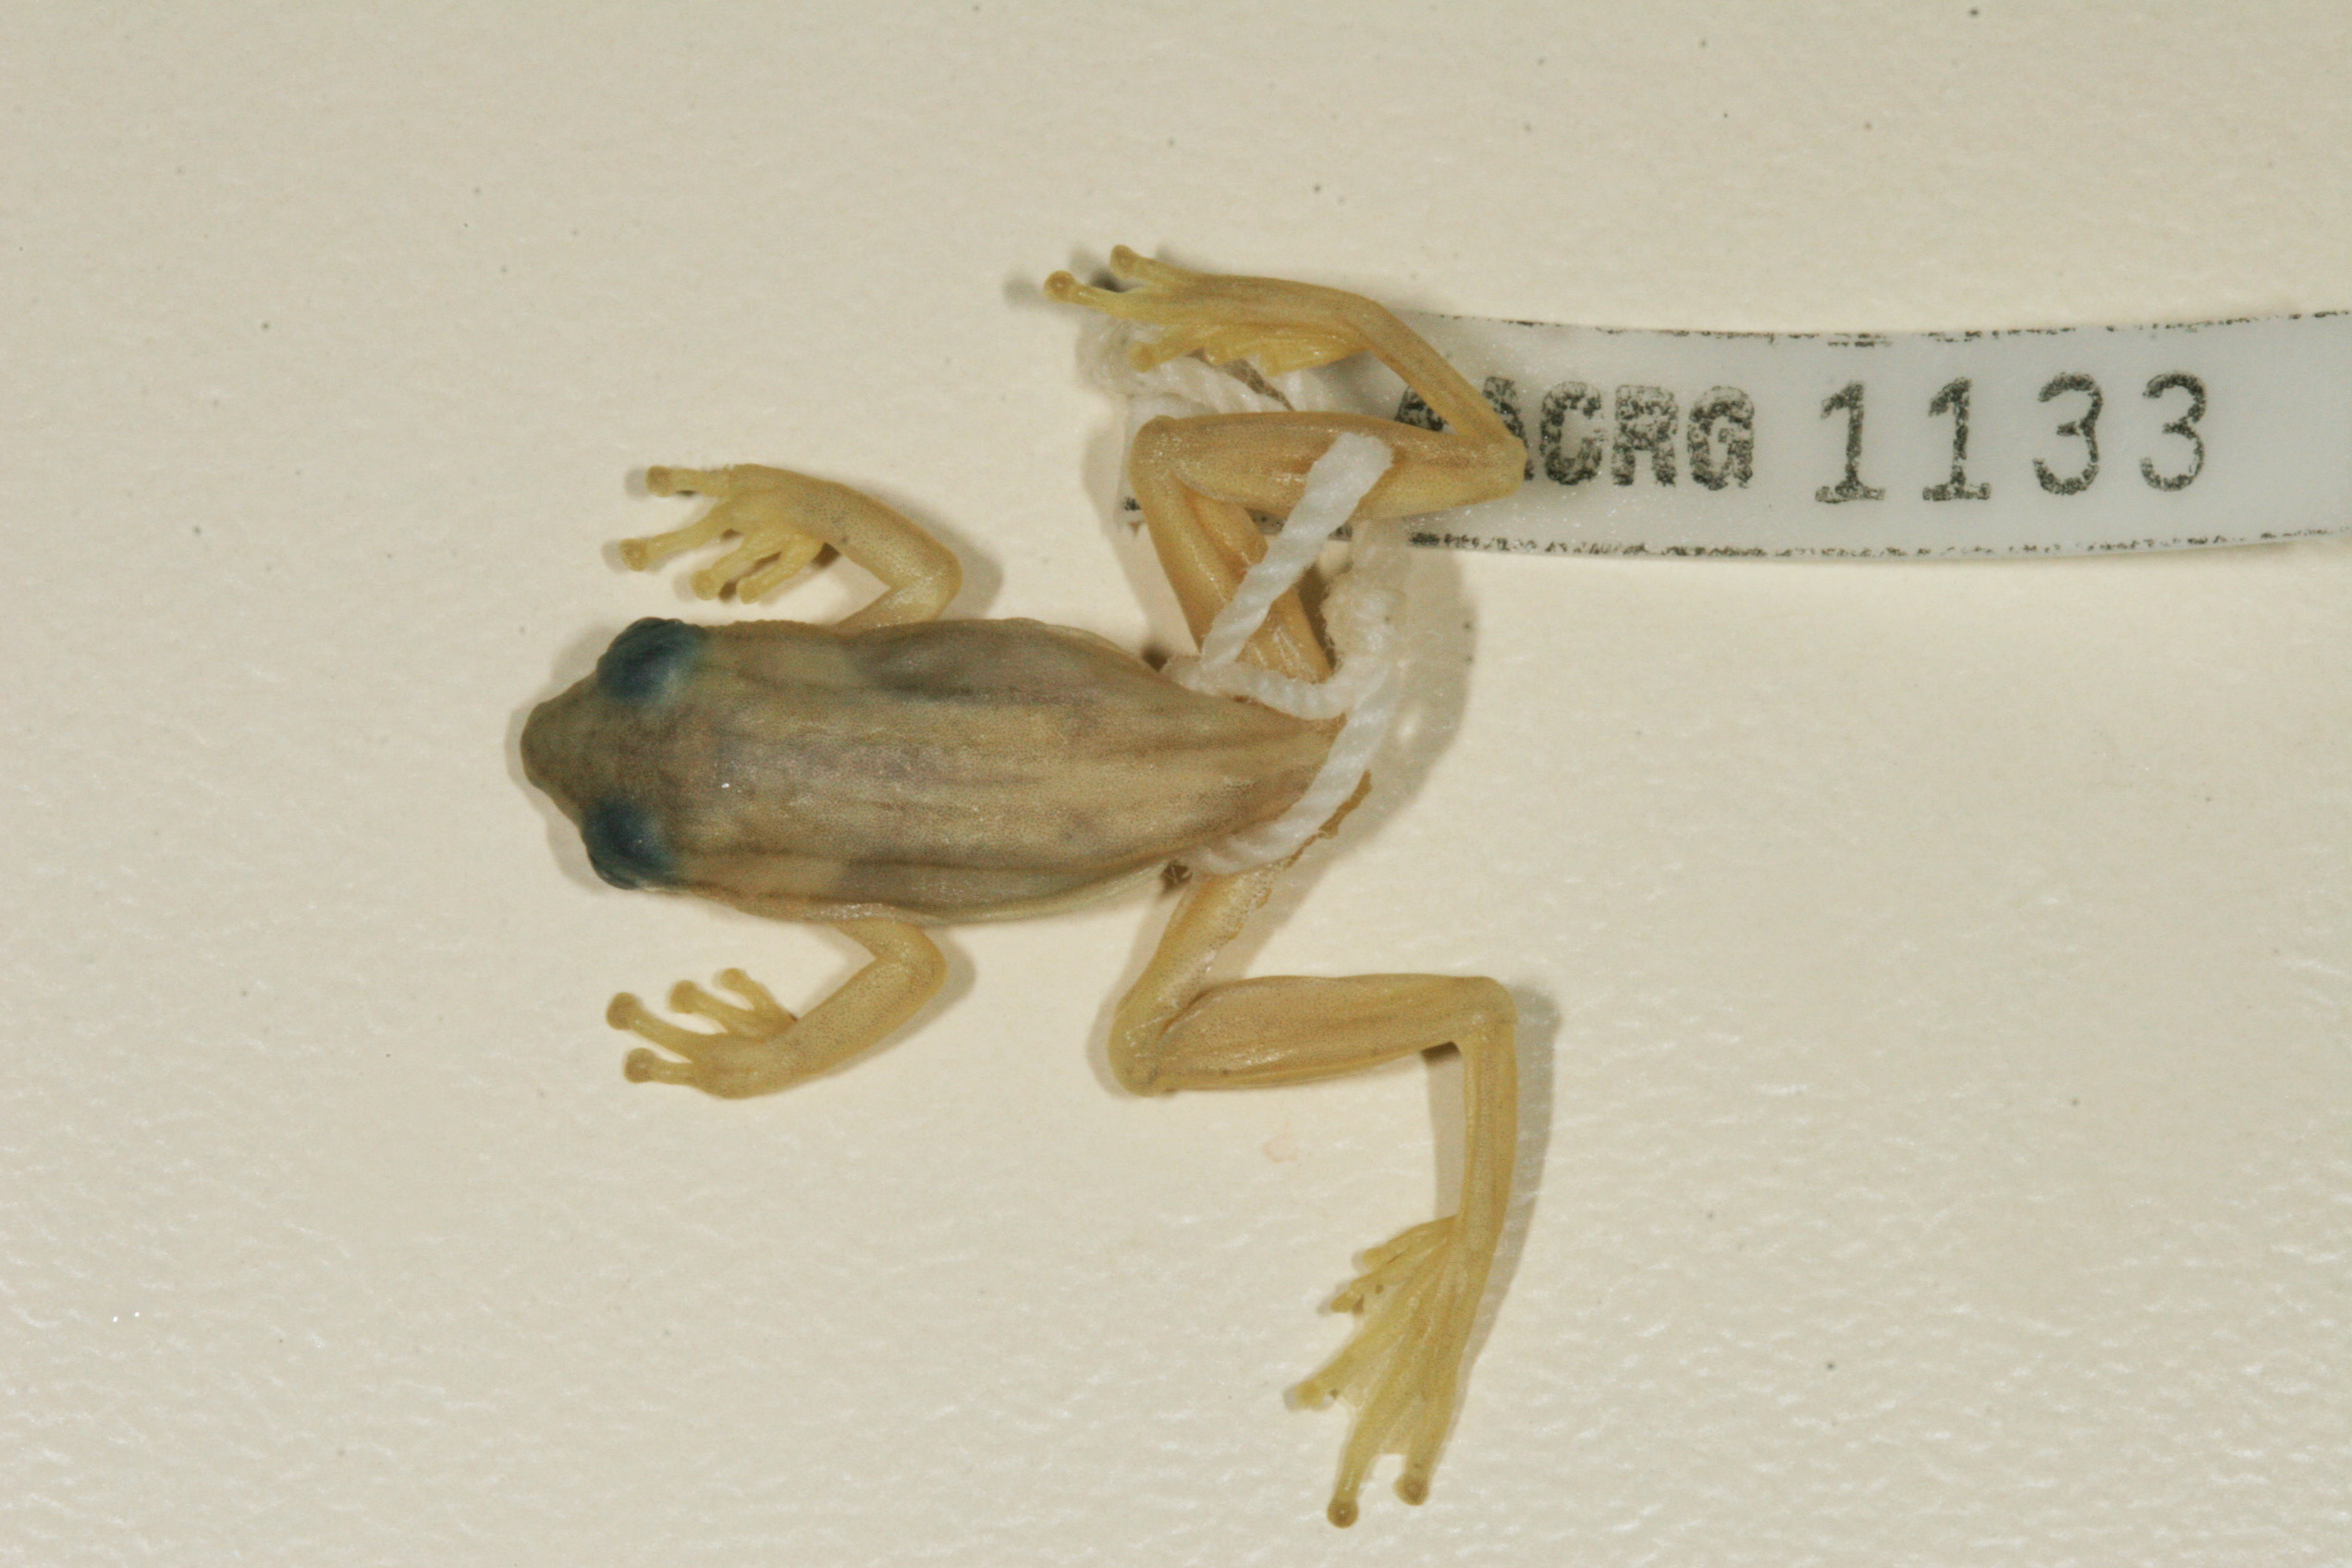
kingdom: Animalia
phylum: Chordata
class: Amphibia
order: Anura
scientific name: Anura
